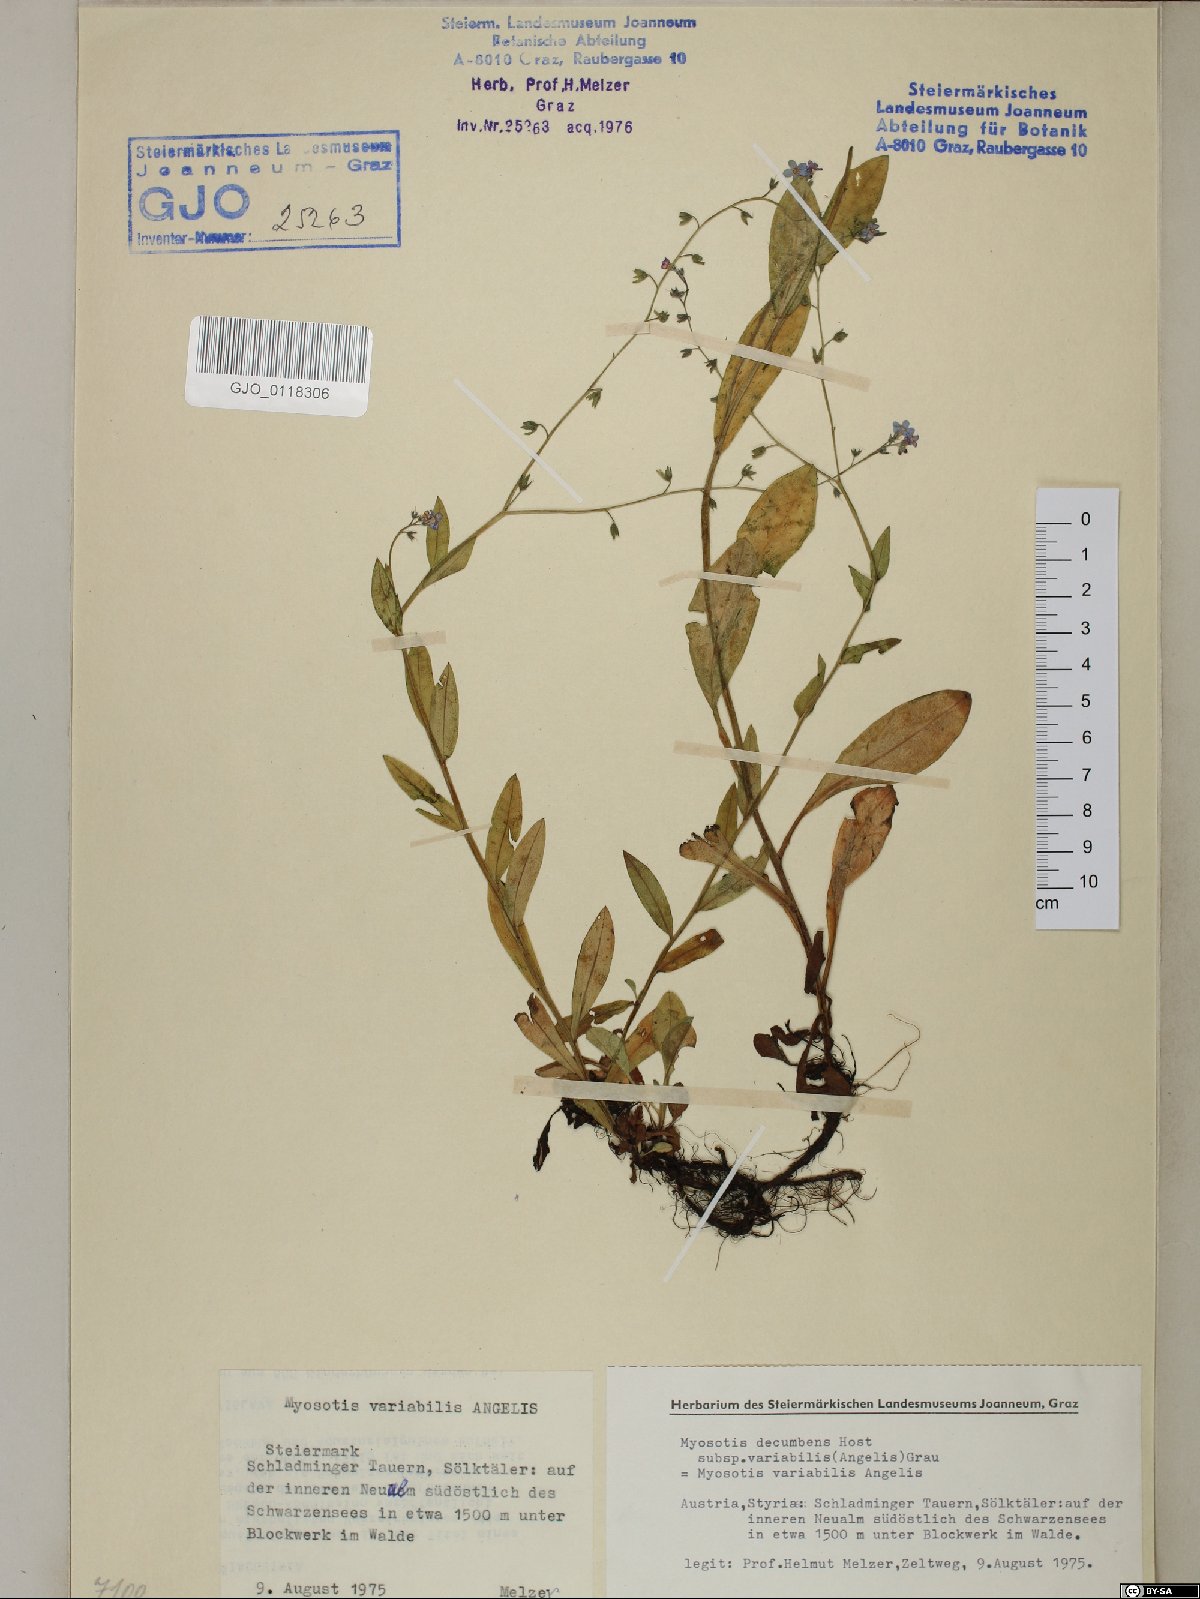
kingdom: Plantae
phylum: Tracheophyta
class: Magnoliopsida
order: Boraginales
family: Boraginaceae
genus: Myosotis
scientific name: Myosotis decumbens
